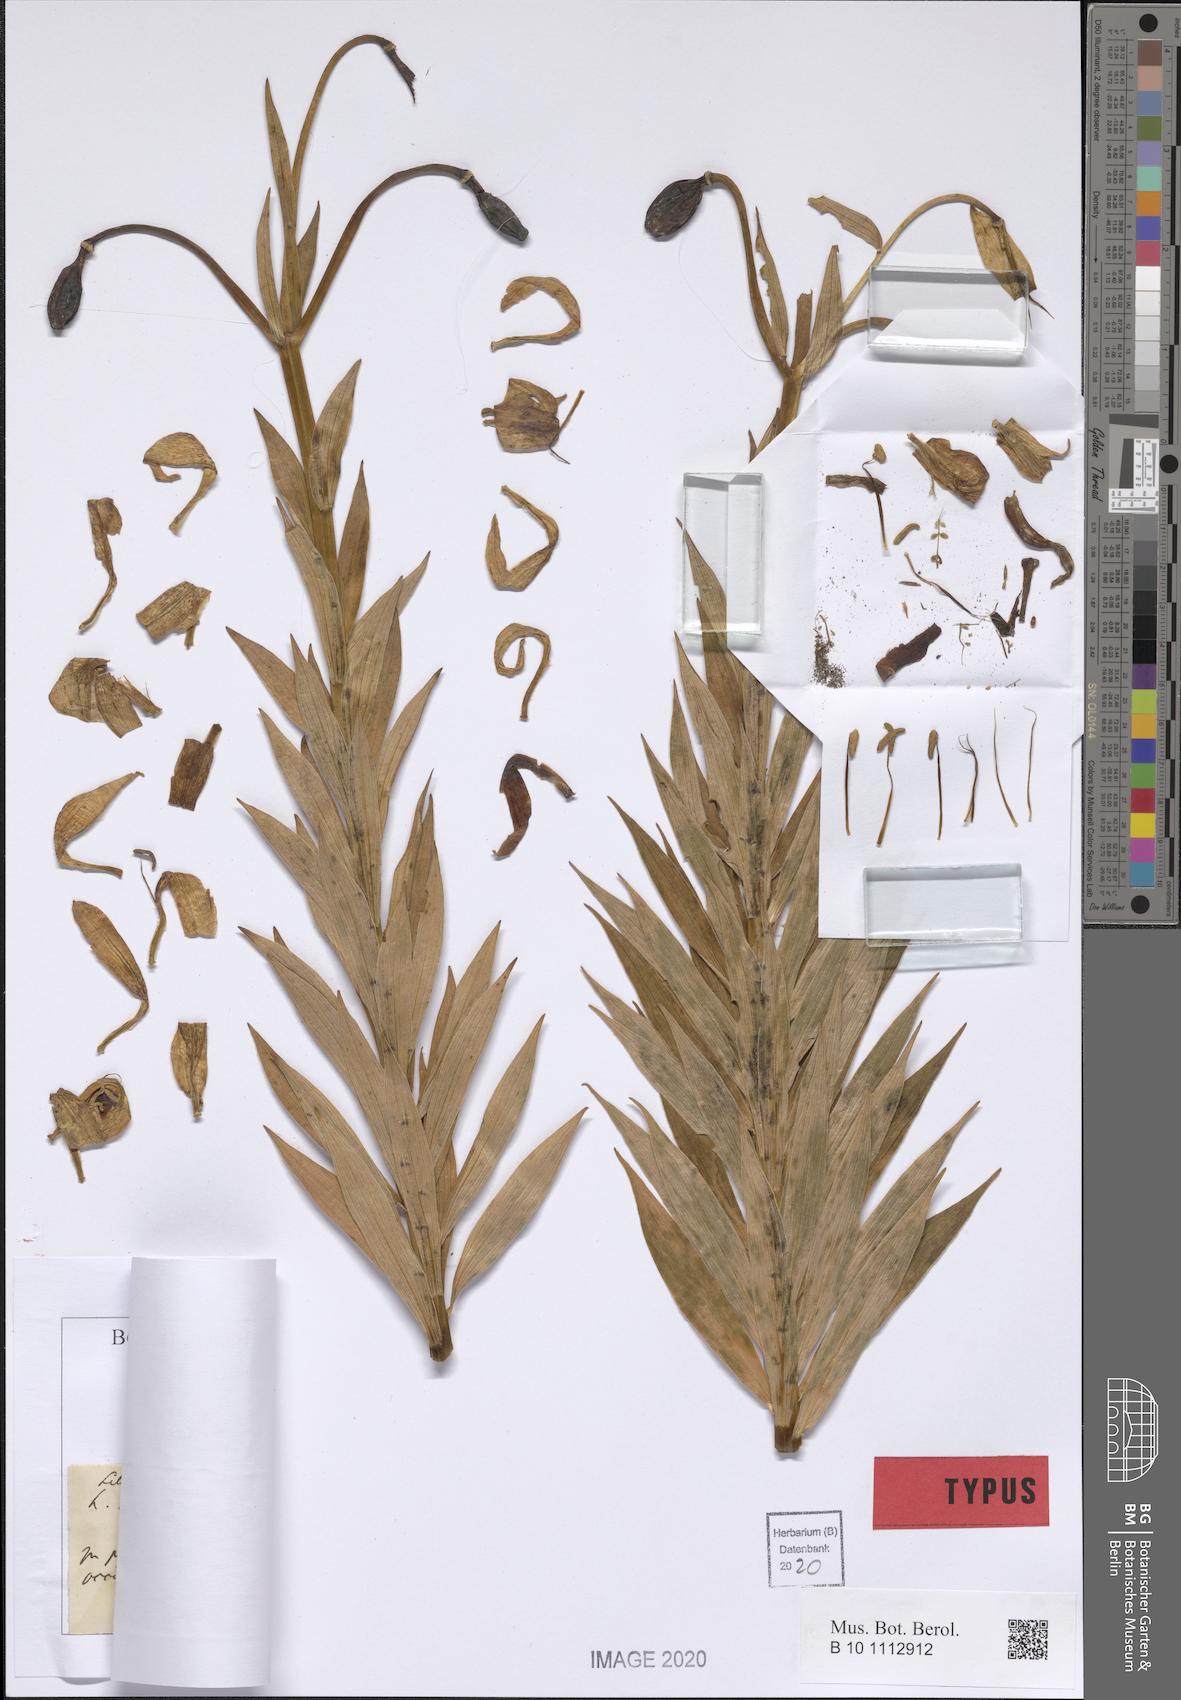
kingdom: Plantae
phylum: Tracheophyta
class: Liliopsida
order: Liliales
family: Liliaceae
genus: Lilium
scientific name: Lilium jankae
